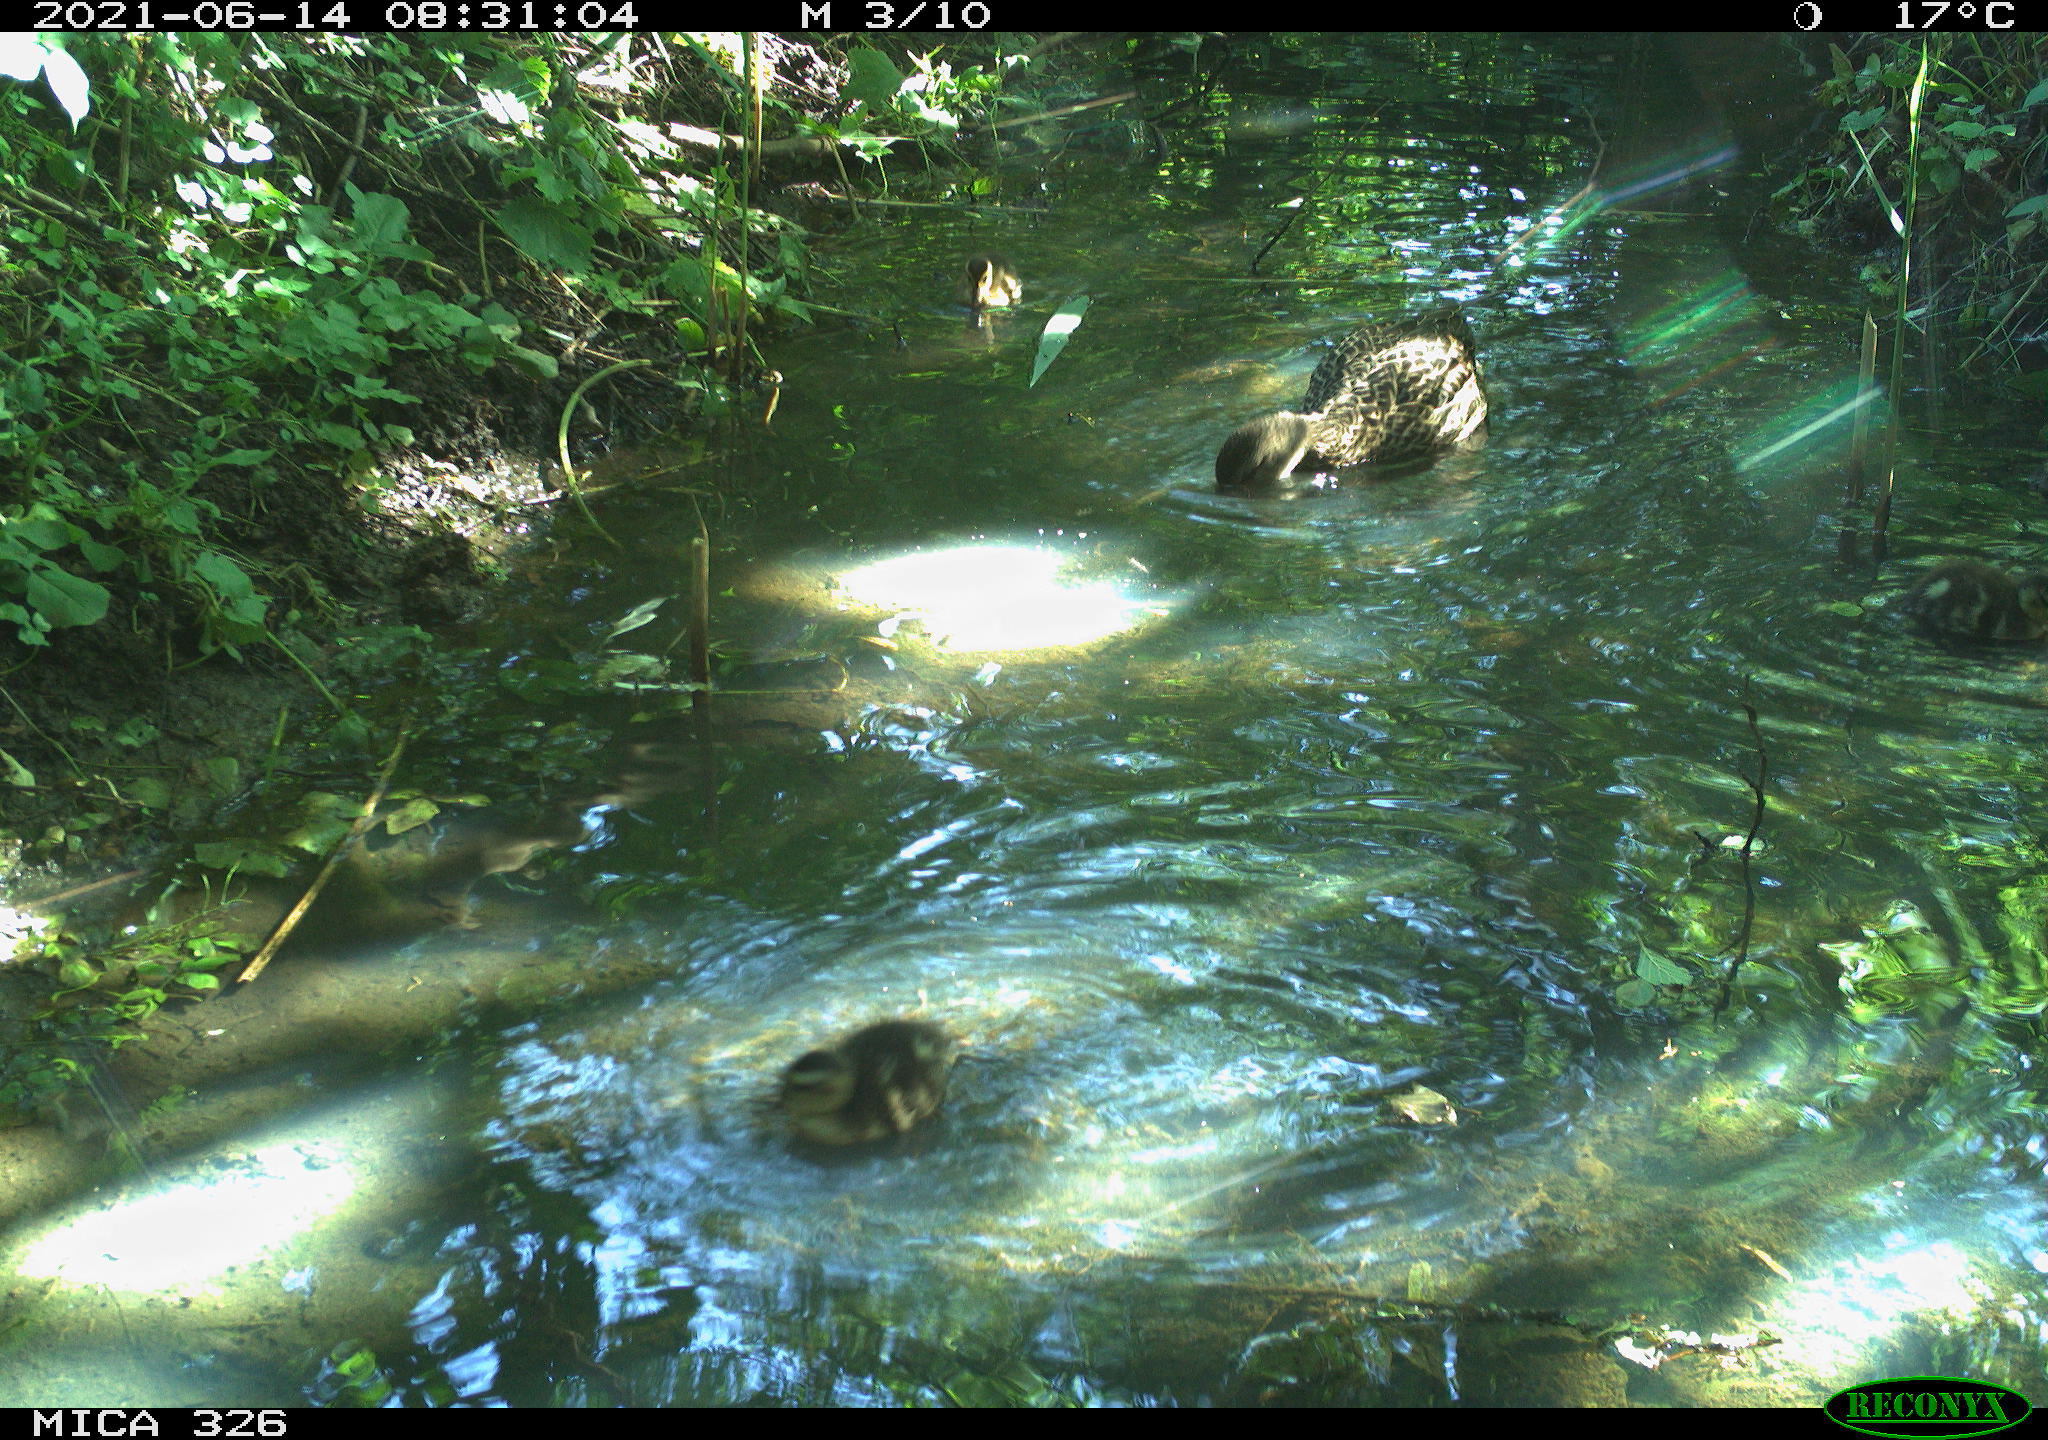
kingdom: Animalia
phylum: Chordata
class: Aves
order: Anseriformes
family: Anatidae
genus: Anas
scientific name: Anas platyrhynchos
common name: Mallard
